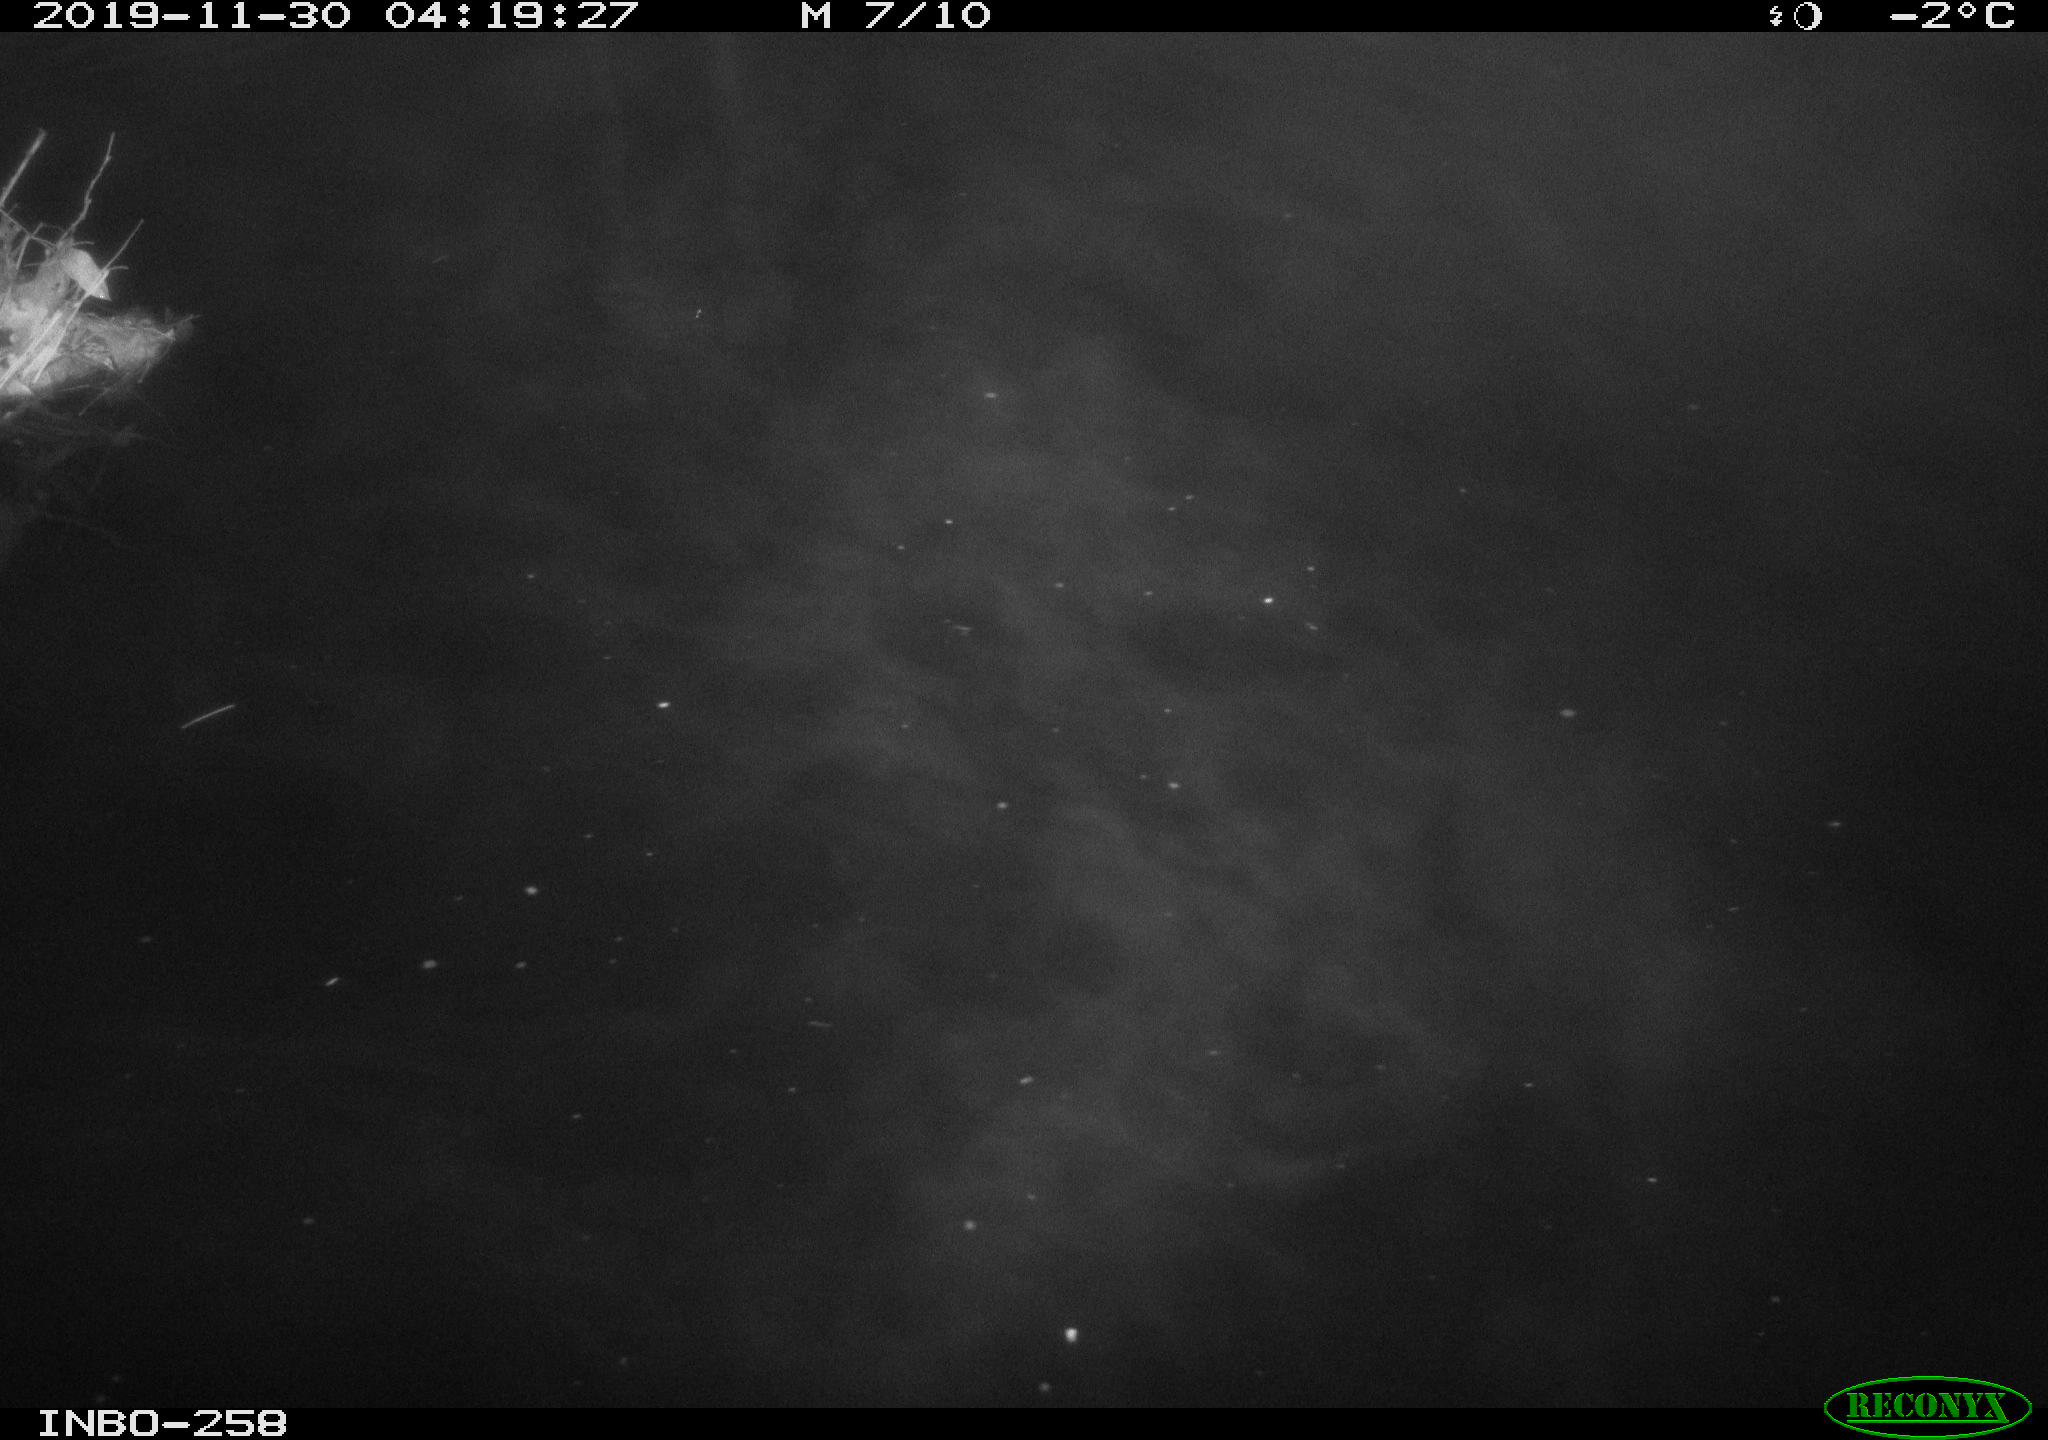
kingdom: Animalia
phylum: Chordata
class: Aves
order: Anseriformes
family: Anatidae
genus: Anas
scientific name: Anas platyrhynchos
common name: Mallard
